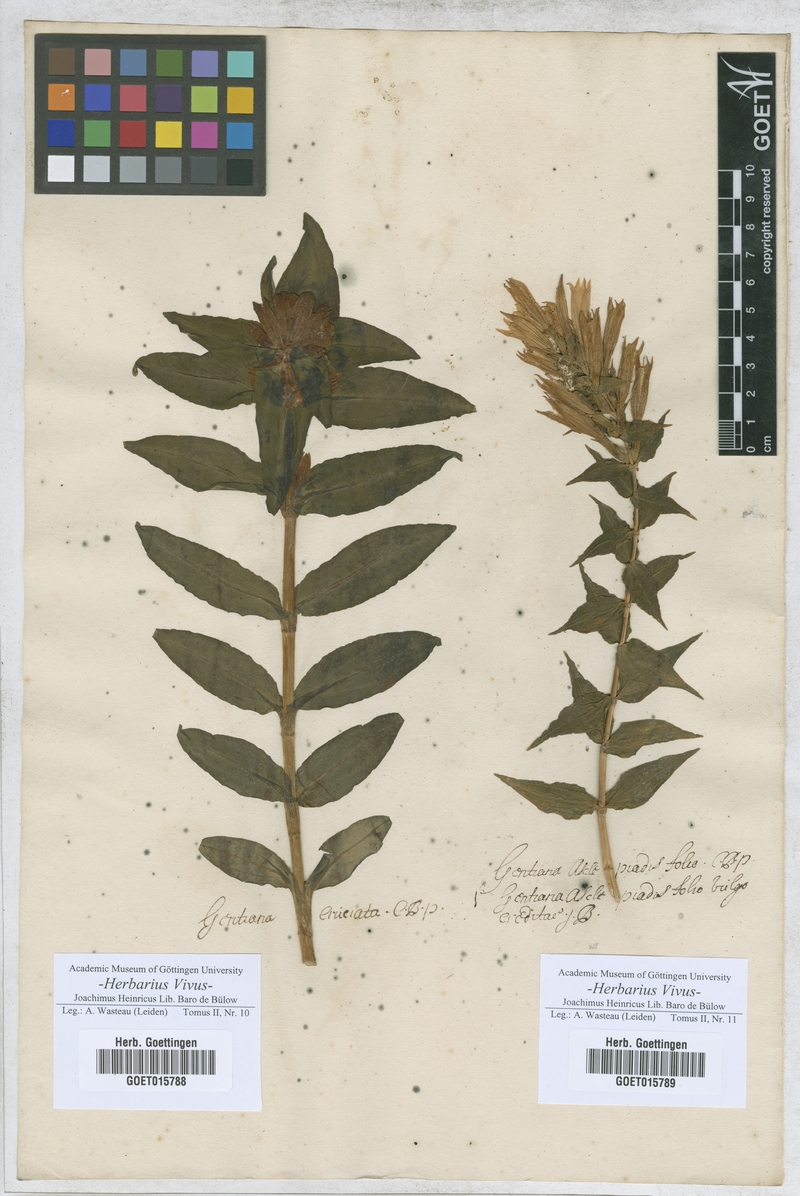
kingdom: Plantae
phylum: Tracheophyta
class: Magnoliopsida
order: Gentianales
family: Gentianaceae
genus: Gentiana
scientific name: Gentiana cruciata
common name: Cross gentian
